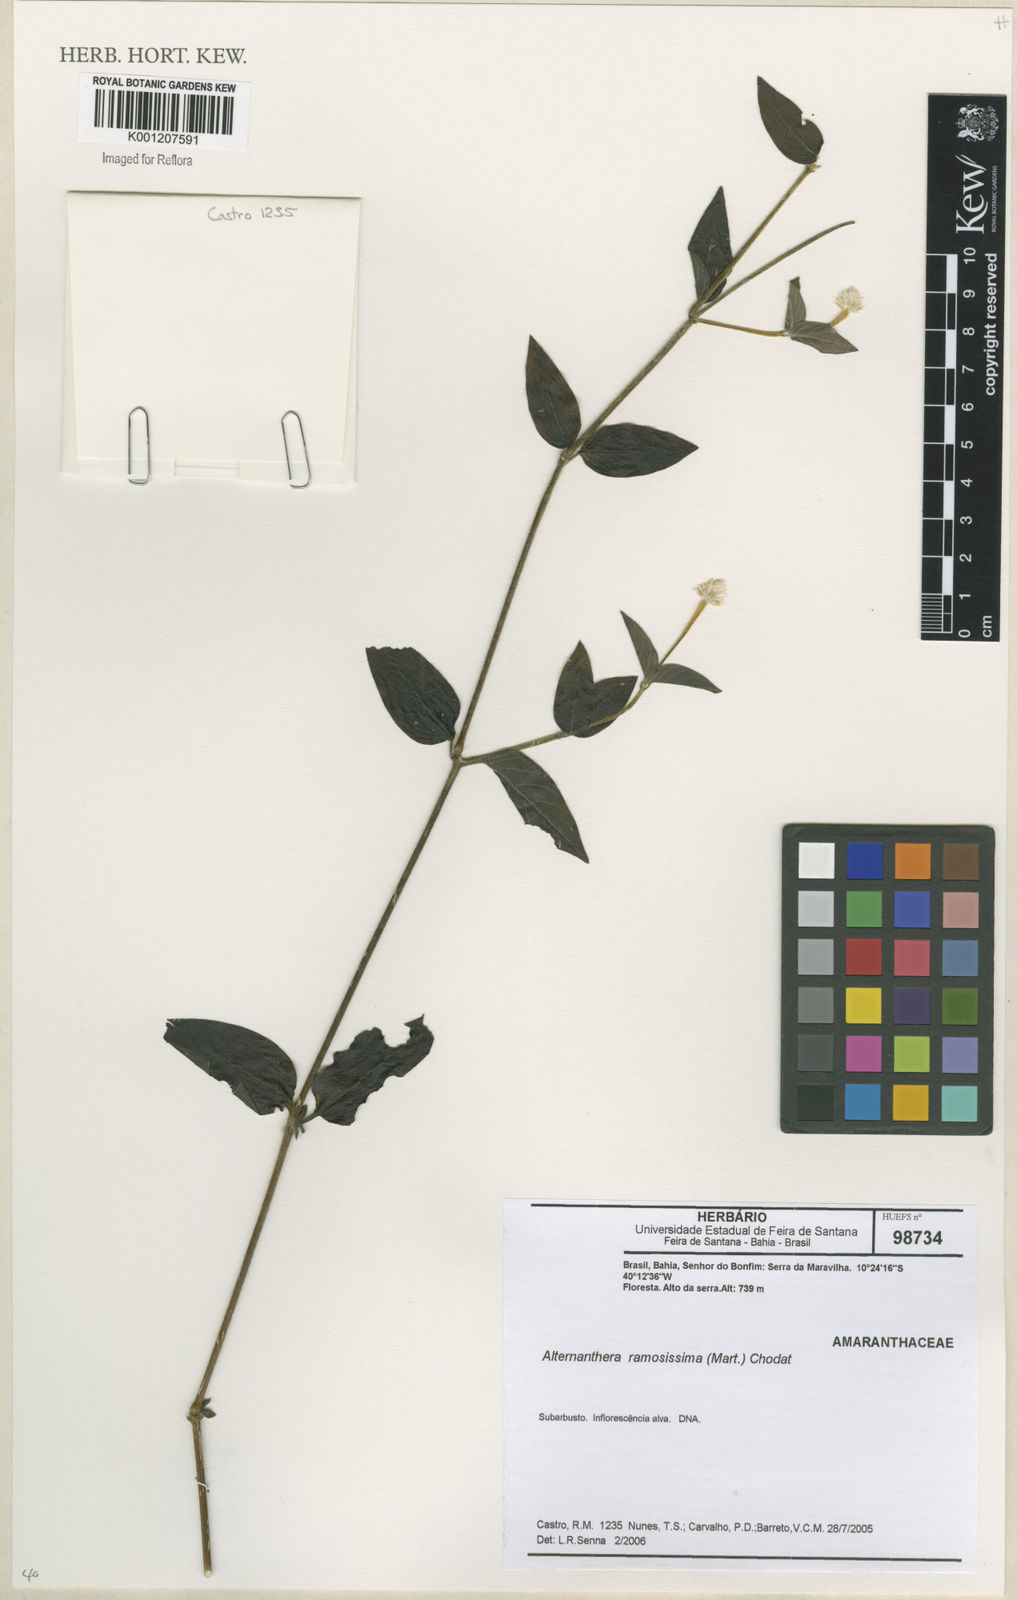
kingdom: Plantae
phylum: Tracheophyta
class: Magnoliopsida
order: Caryophyllales
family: Amaranthaceae
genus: Alternanthera
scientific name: Alternanthera ramosissima
